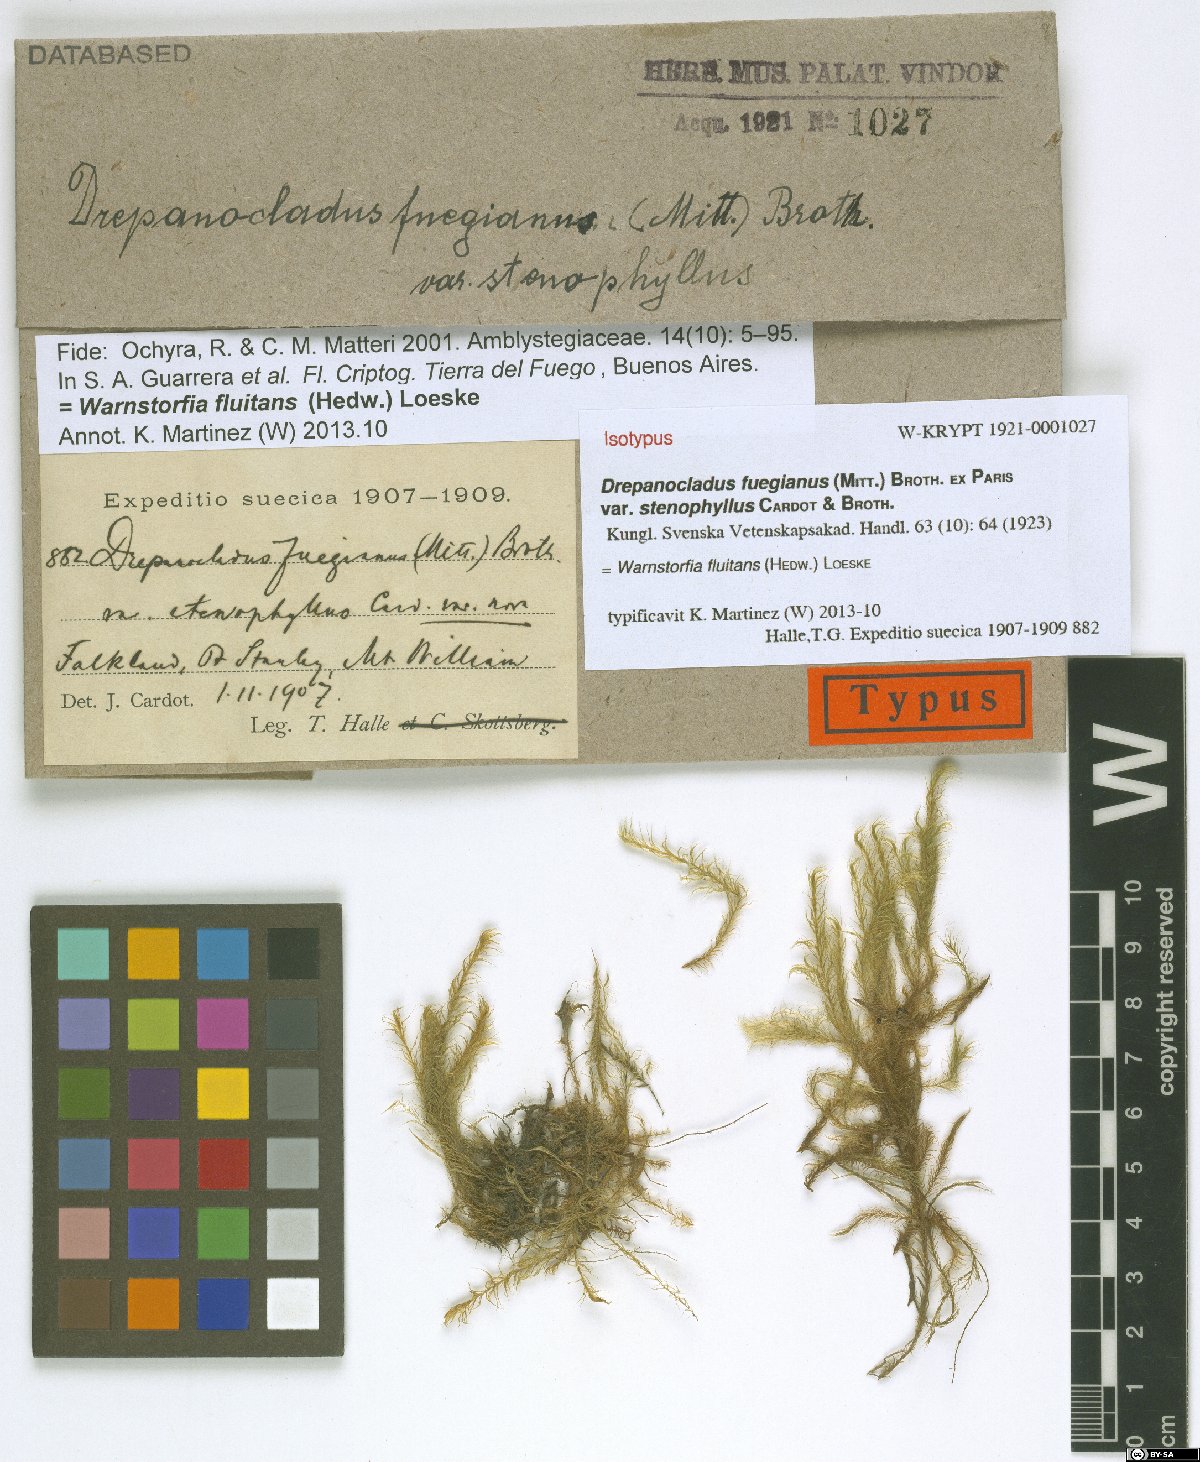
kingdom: Plantae
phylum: Bryophyta
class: Bryopsida
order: Hypnales
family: Calliergonaceae
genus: Warnstorfia
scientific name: Warnstorfia fluitans
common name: Floating hook moss
